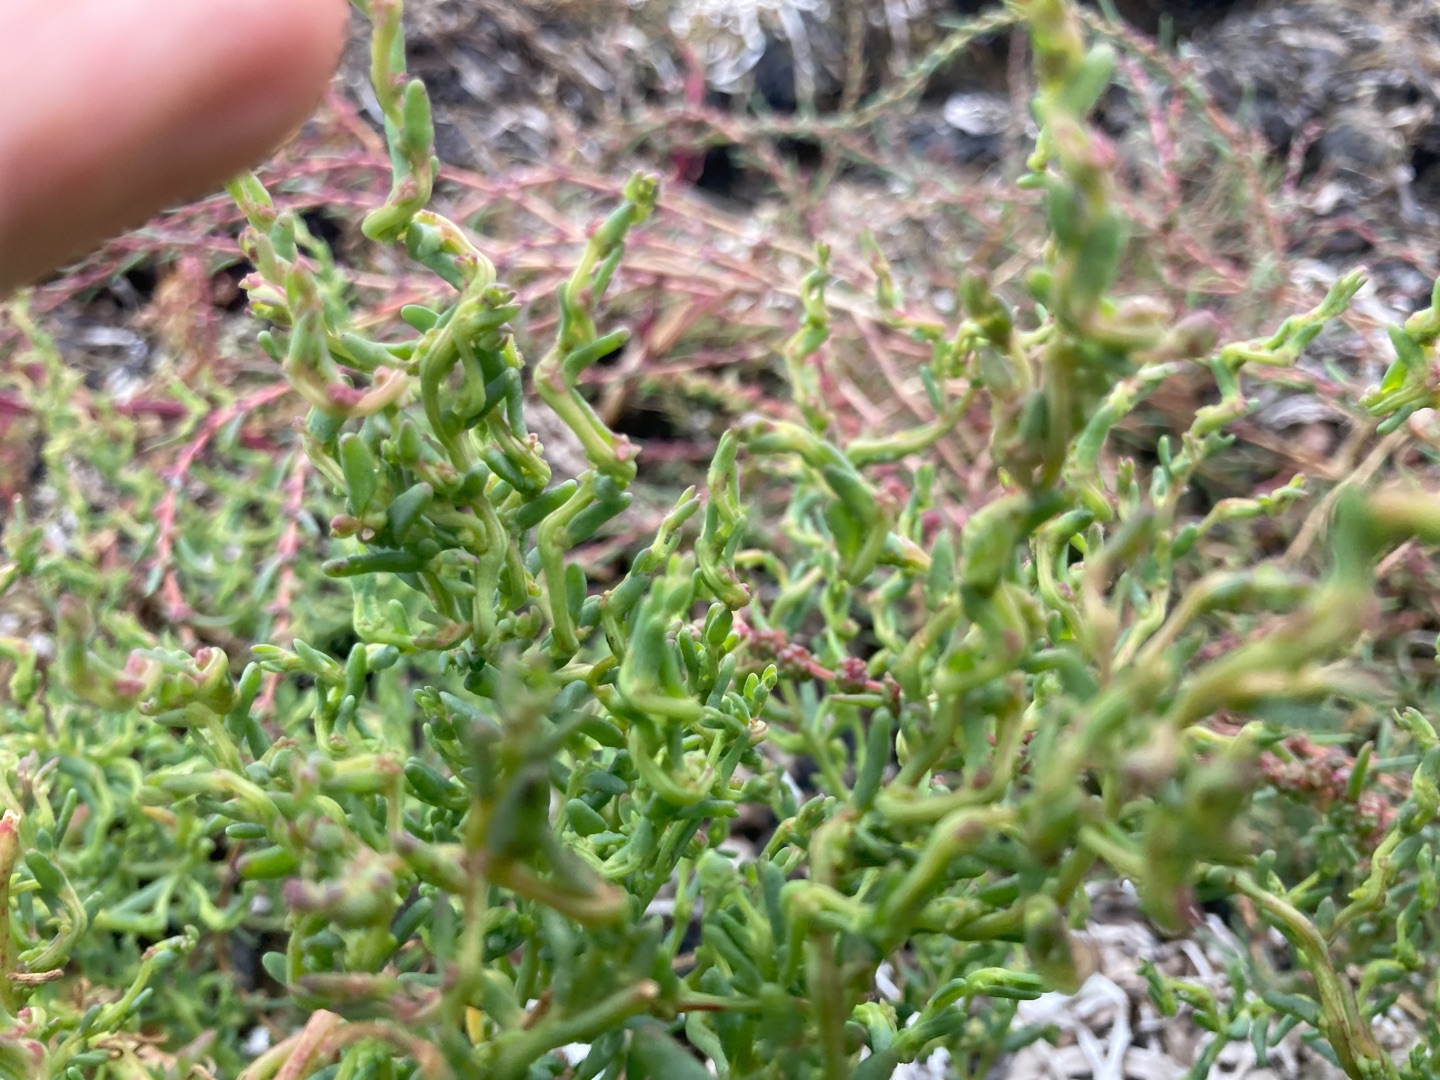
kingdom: Plantae
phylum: Tracheophyta
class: Magnoliopsida
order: Caryophyllales
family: Amaranthaceae
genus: Spirobassia
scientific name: Spirobassia hirsuta
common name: Tangurt
